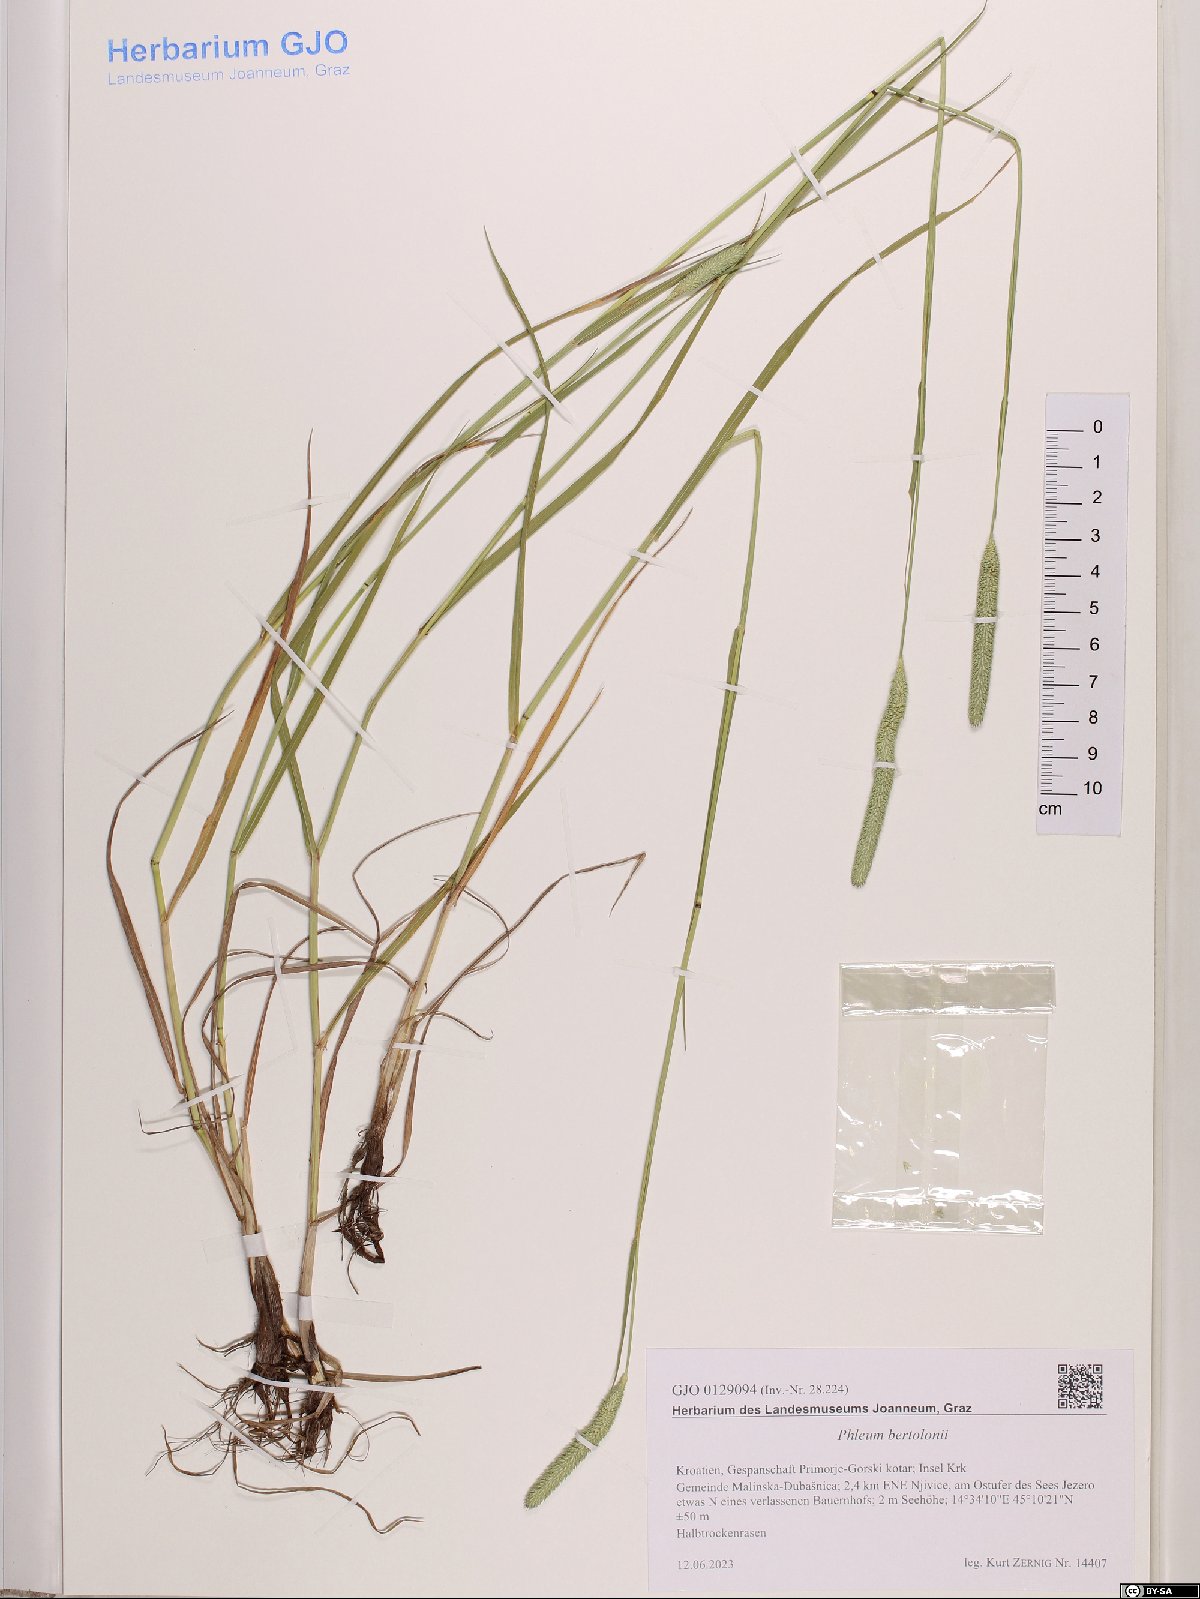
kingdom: Plantae
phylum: Tracheophyta
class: Liliopsida
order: Poales
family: Poaceae
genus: Phleum
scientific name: Phleum bertolonii
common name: Smaller cat's-tail
